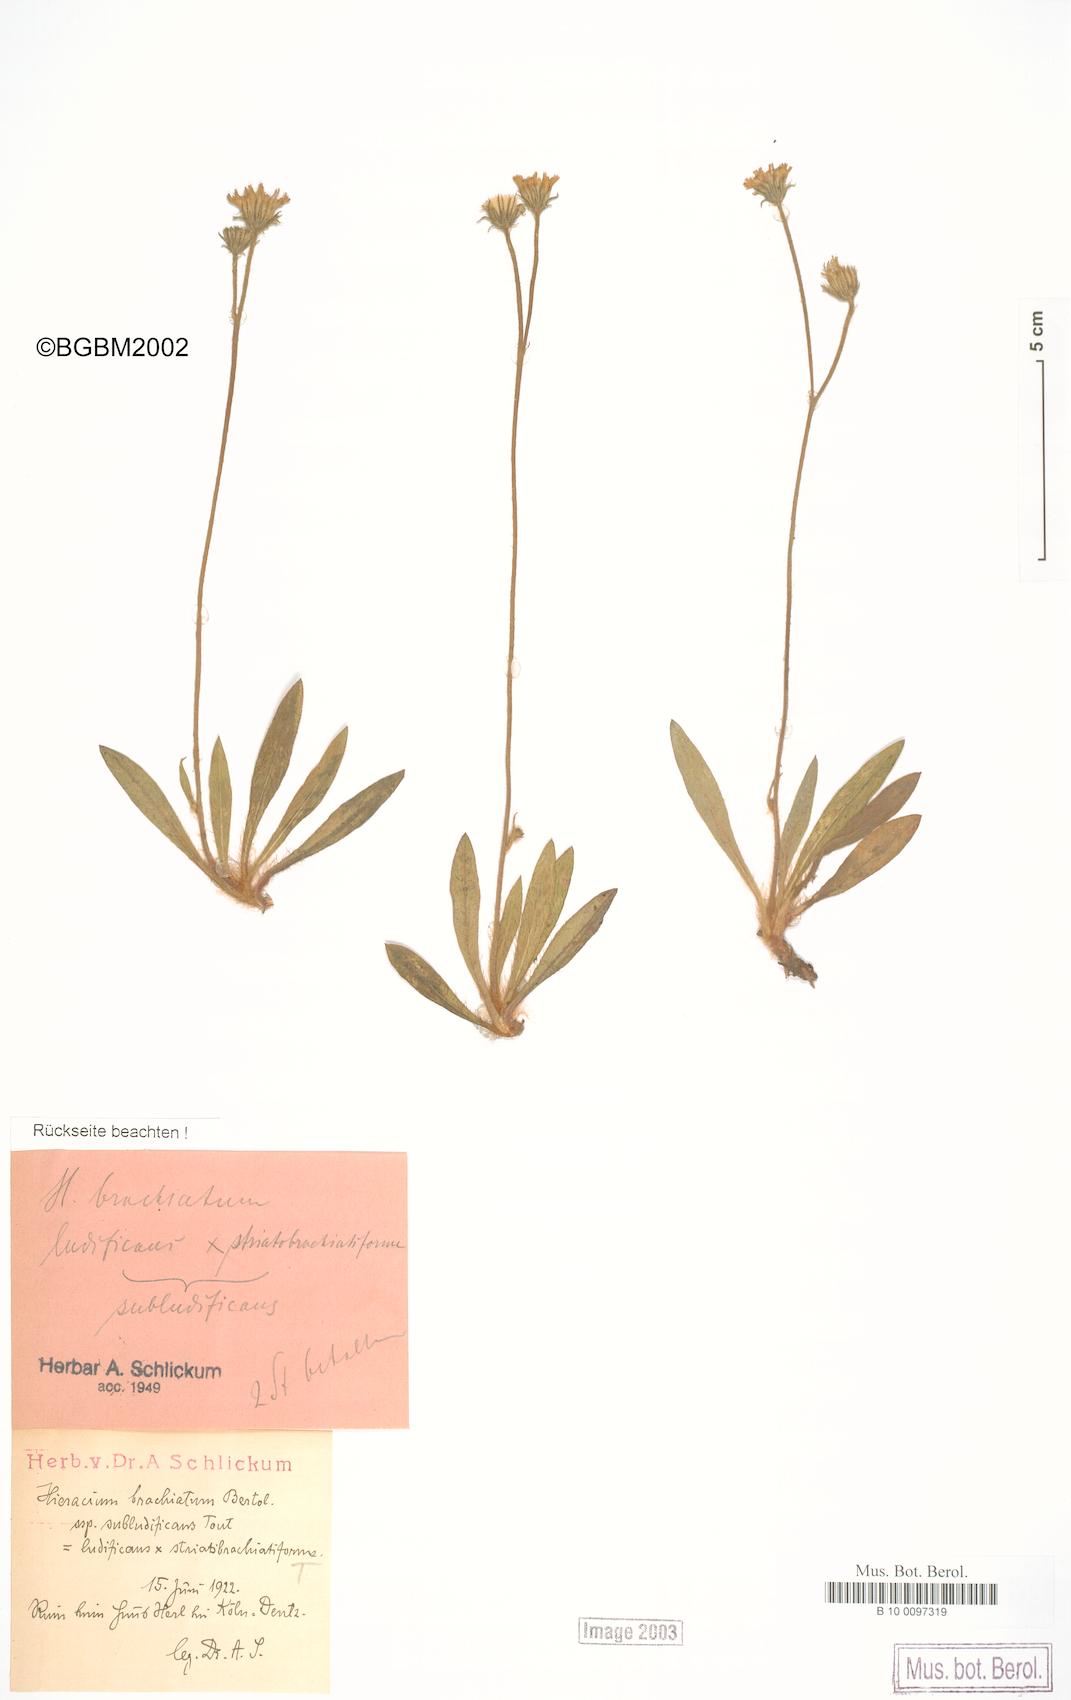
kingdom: Plantae
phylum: Tracheophyta
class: Magnoliopsida
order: Asterales
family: Asteraceae
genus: Pilosella
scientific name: Pilosella acutifolia
